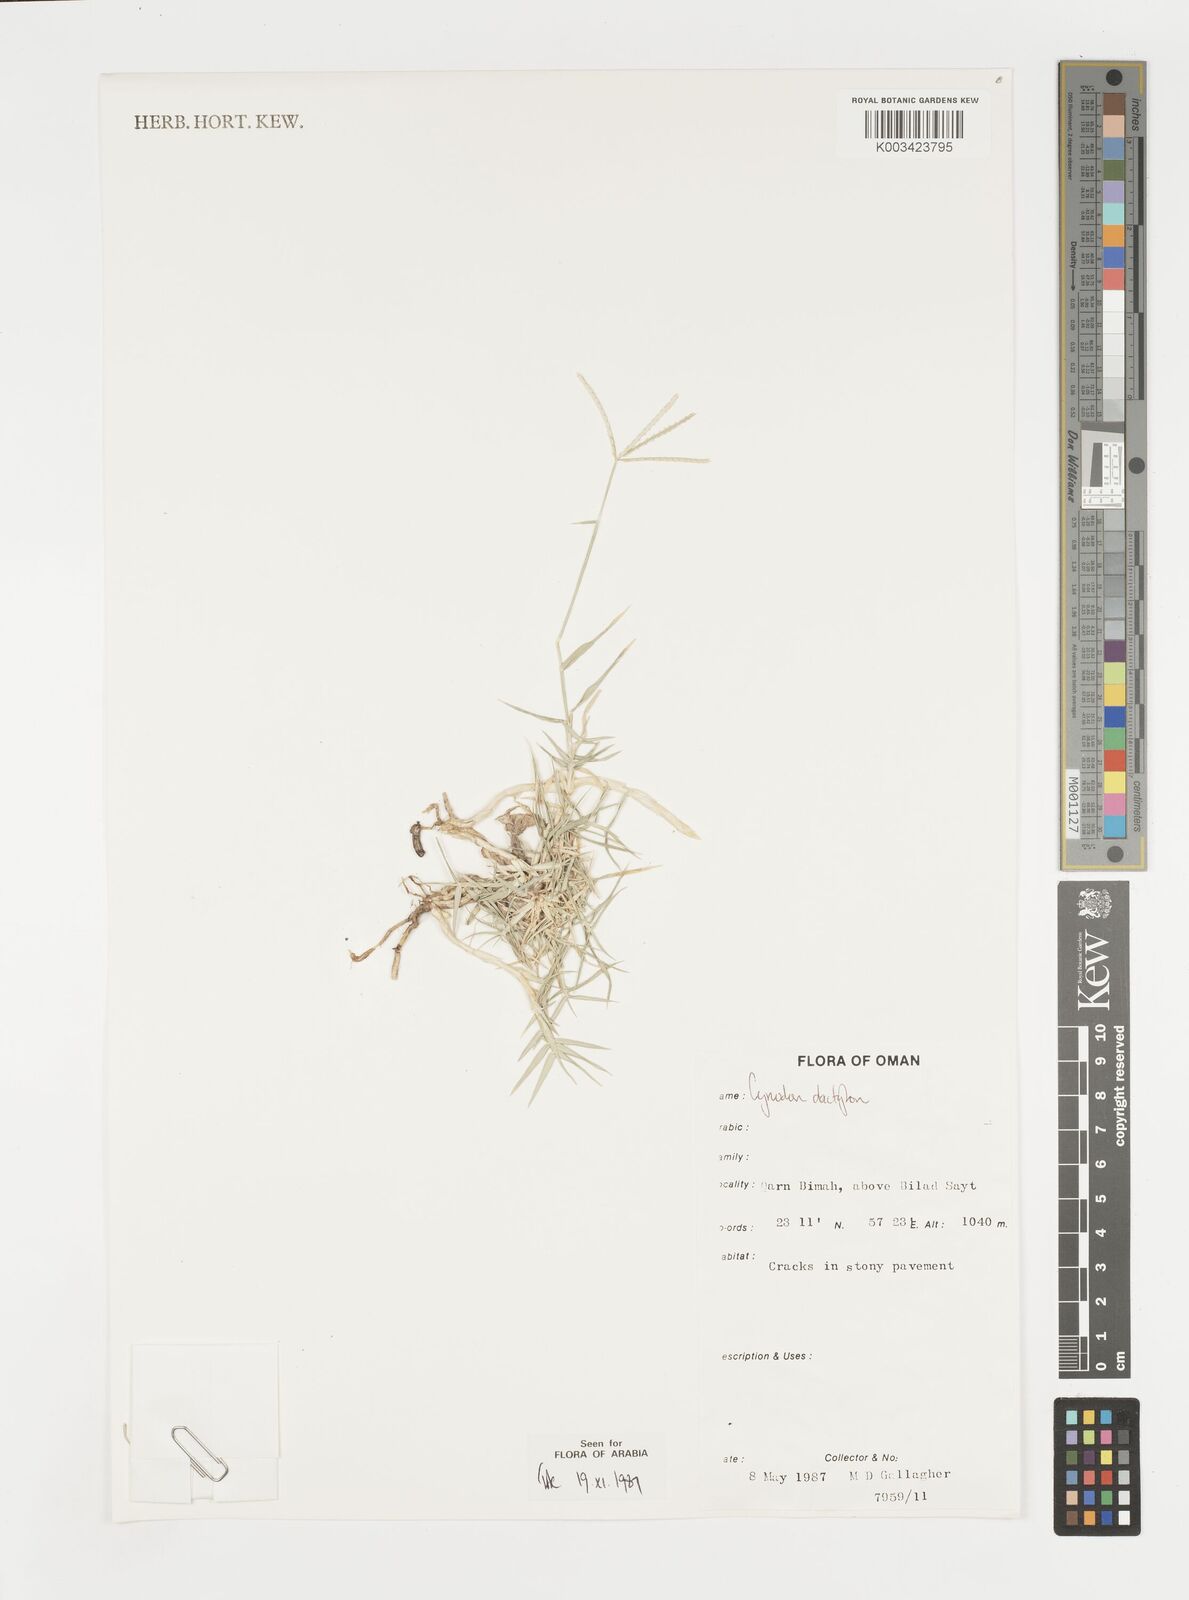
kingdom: Plantae
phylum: Tracheophyta
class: Liliopsida
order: Poales
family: Poaceae
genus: Cynodon
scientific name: Cynodon dactylon
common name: Bermuda grass
